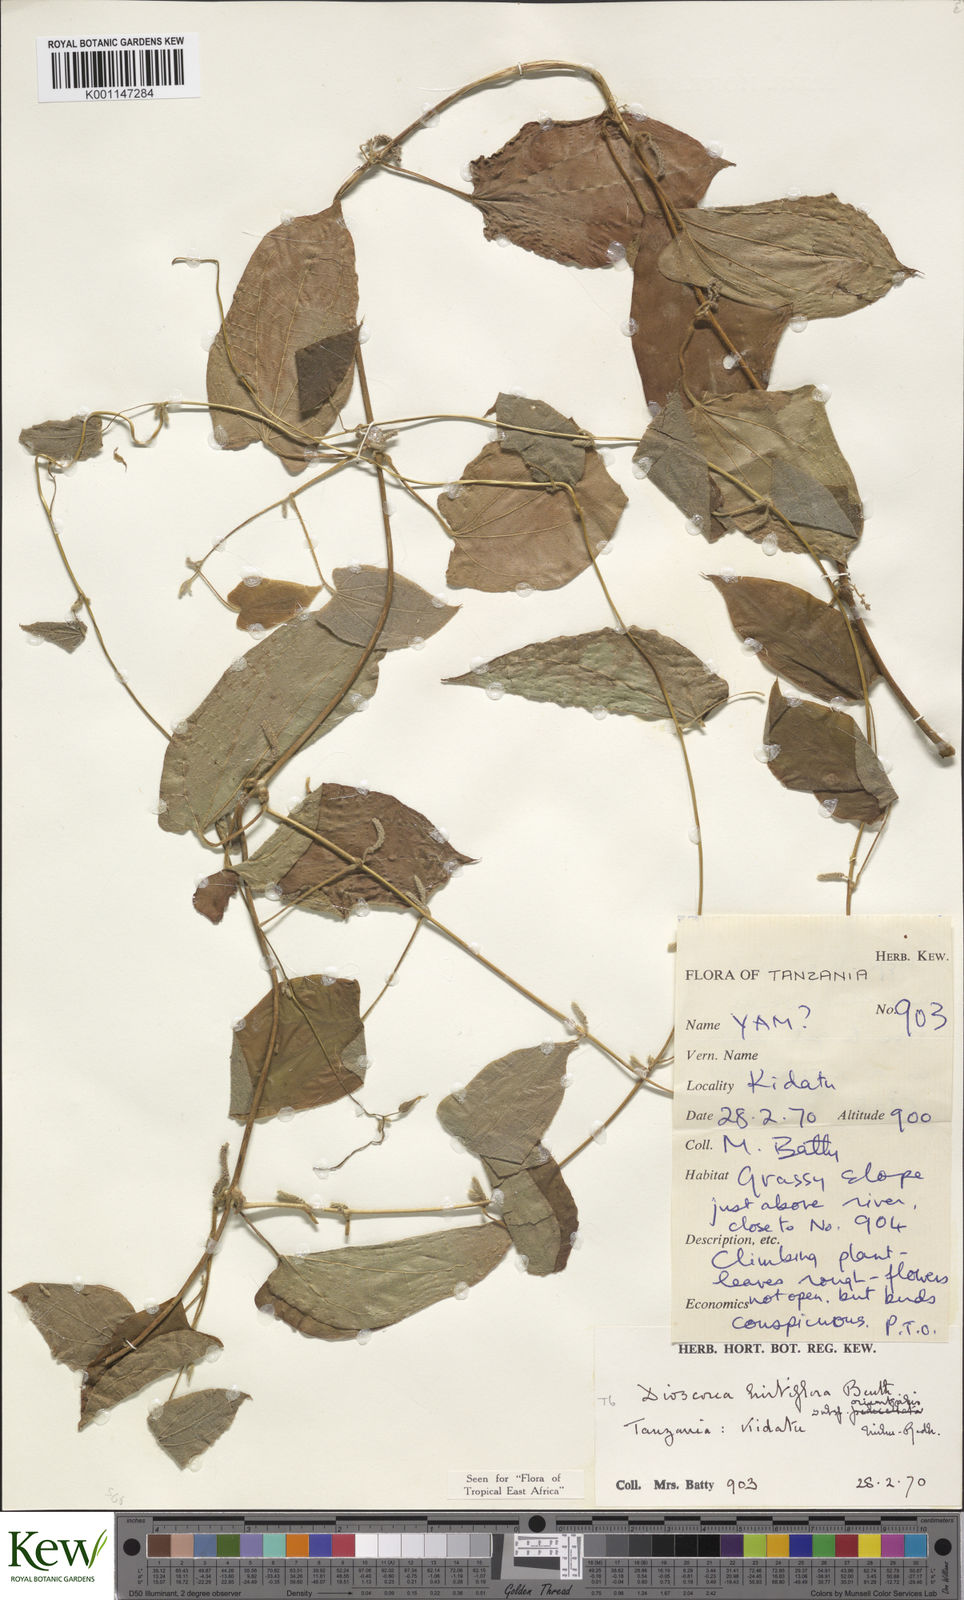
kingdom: Plantae
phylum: Tracheophyta
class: Liliopsida
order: Dioscoreales
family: Dioscoreaceae
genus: Dioscorea
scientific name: Dioscorea hirtiflora
